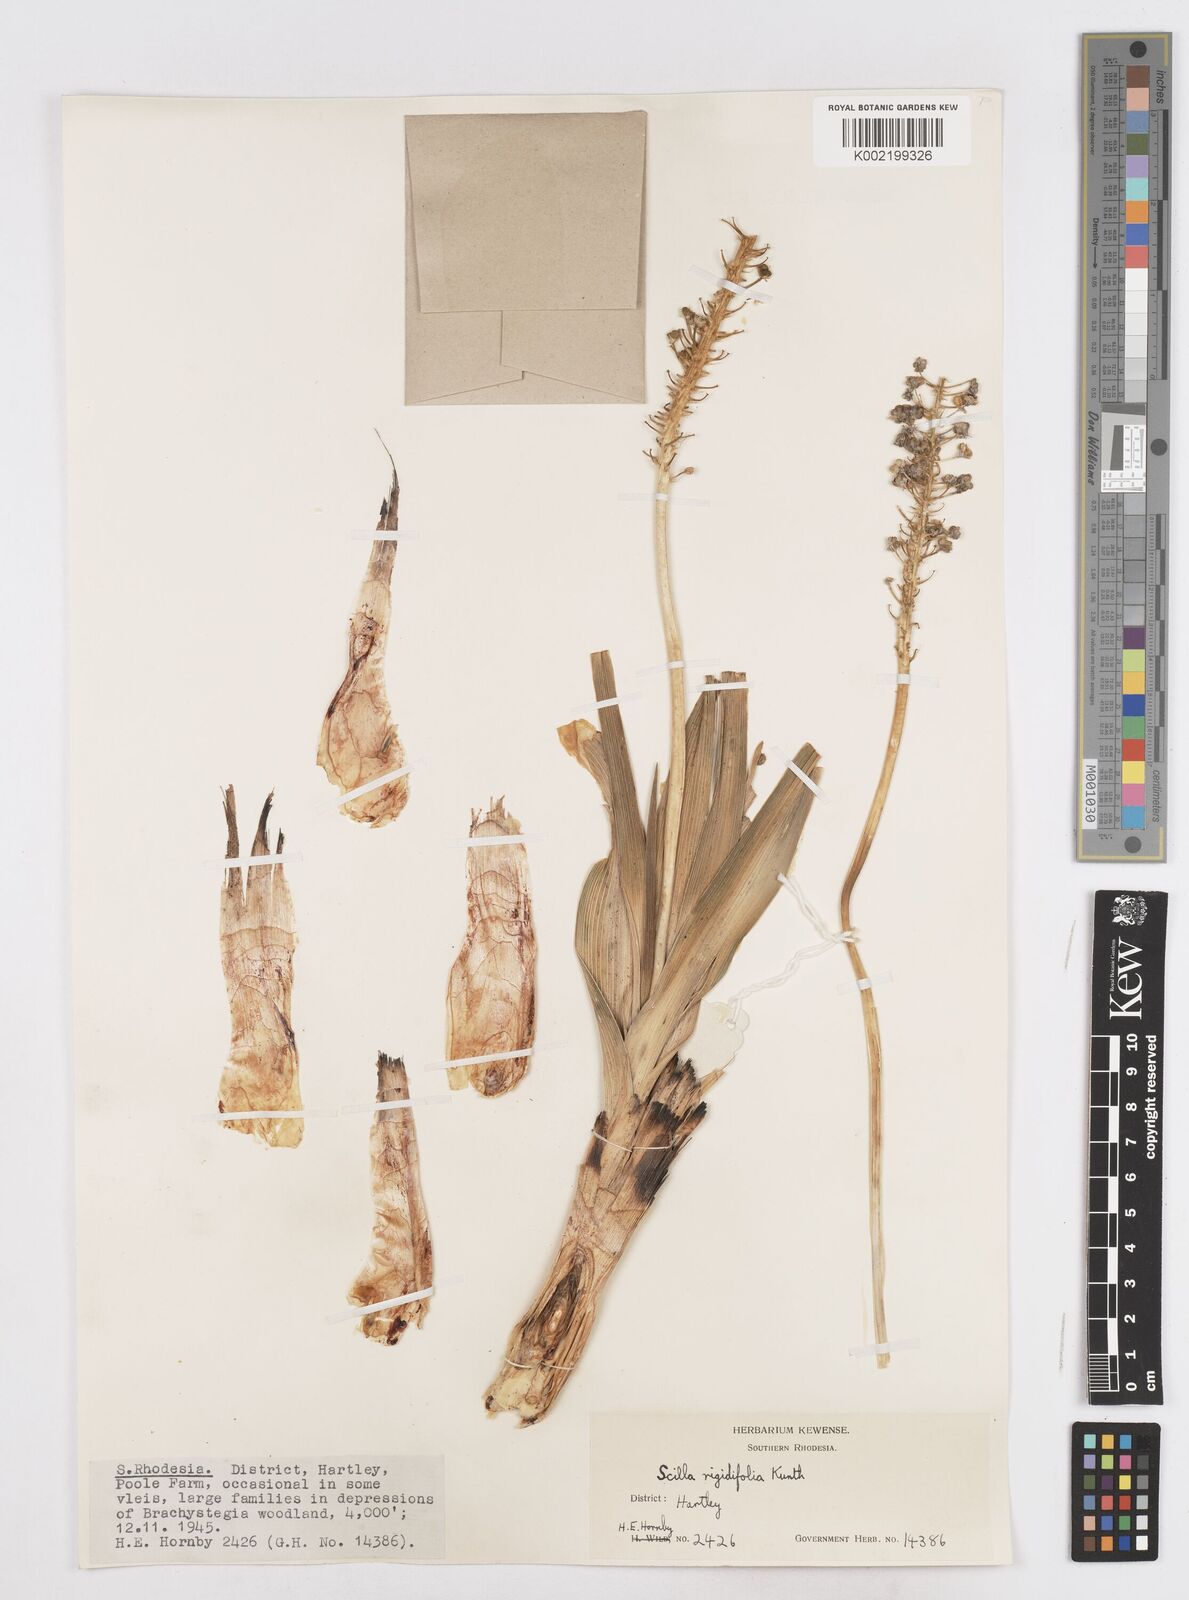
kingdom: Plantae
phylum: Tracheophyta
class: Liliopsida
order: Asparagales
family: Asparagaceae
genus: Schizocarphus
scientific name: Schizocarphus nervosus
